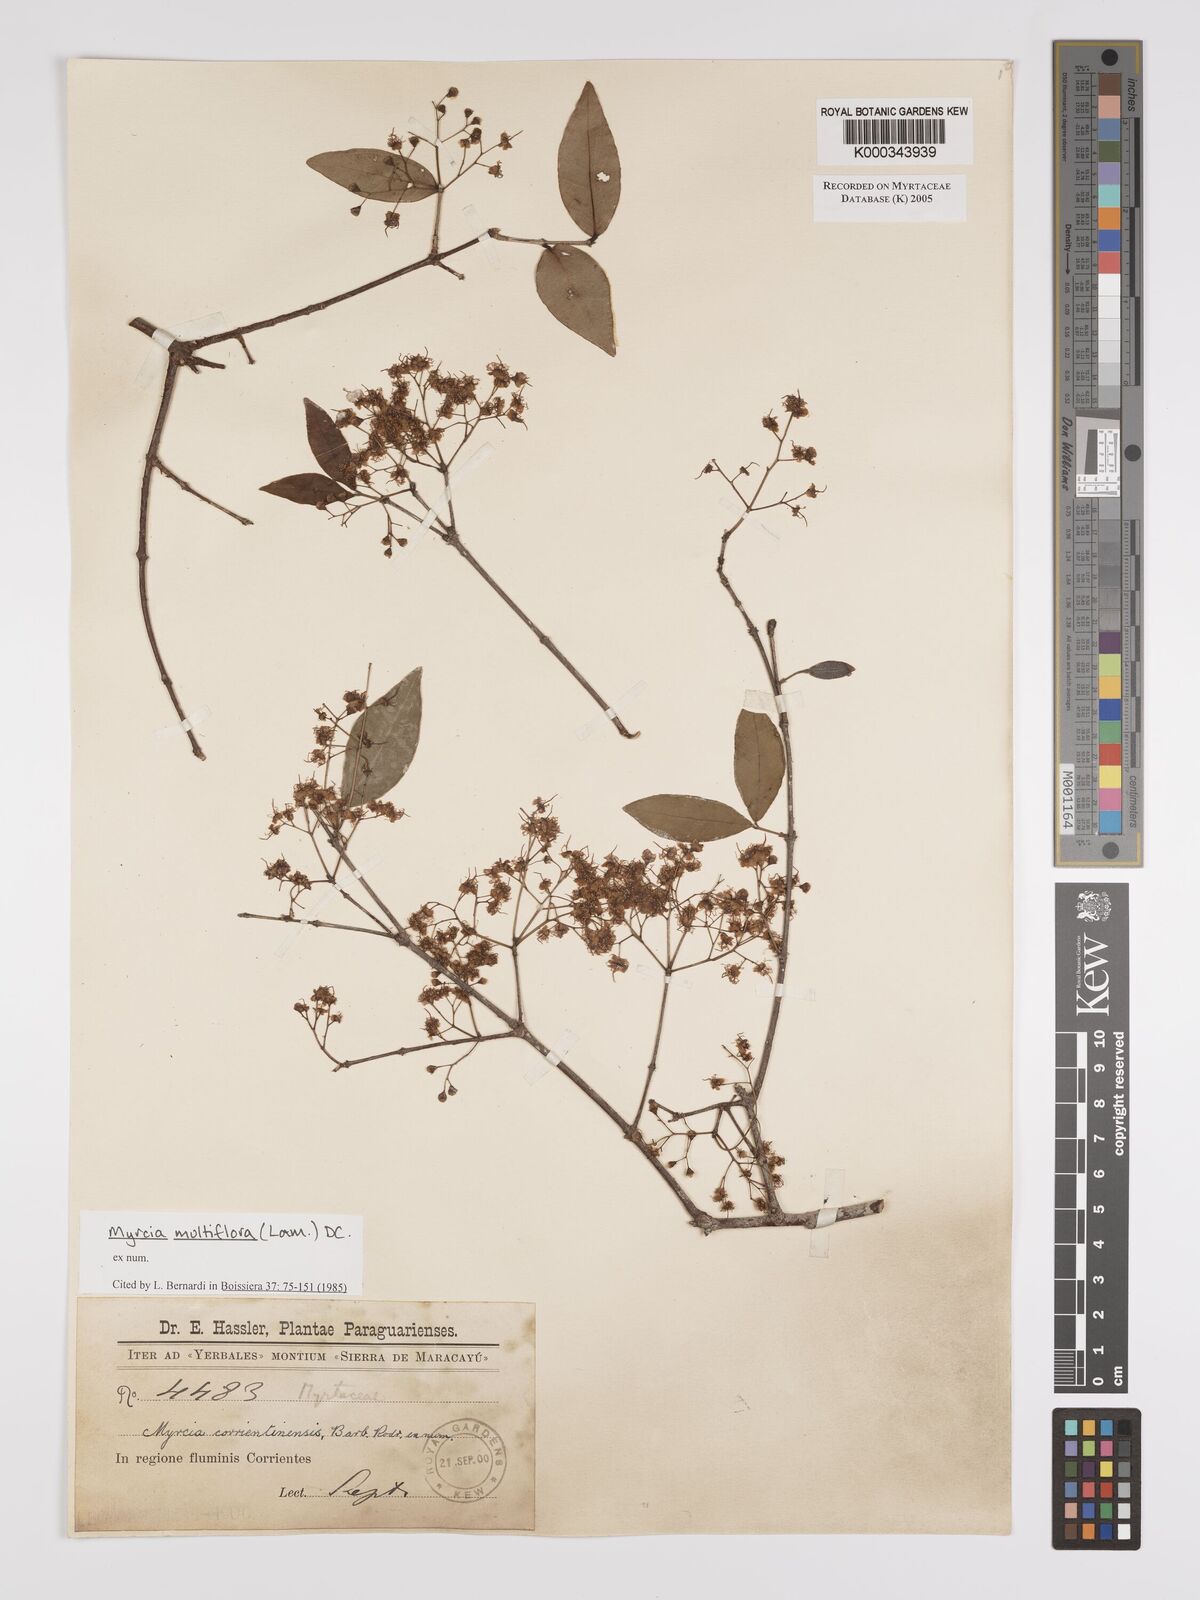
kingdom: Plantae
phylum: Tracheophyta
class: Magnoliopsida
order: Myrtales
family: Myrtaceae
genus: Myrcia
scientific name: Myrcia multiflora
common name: Pedra hume
